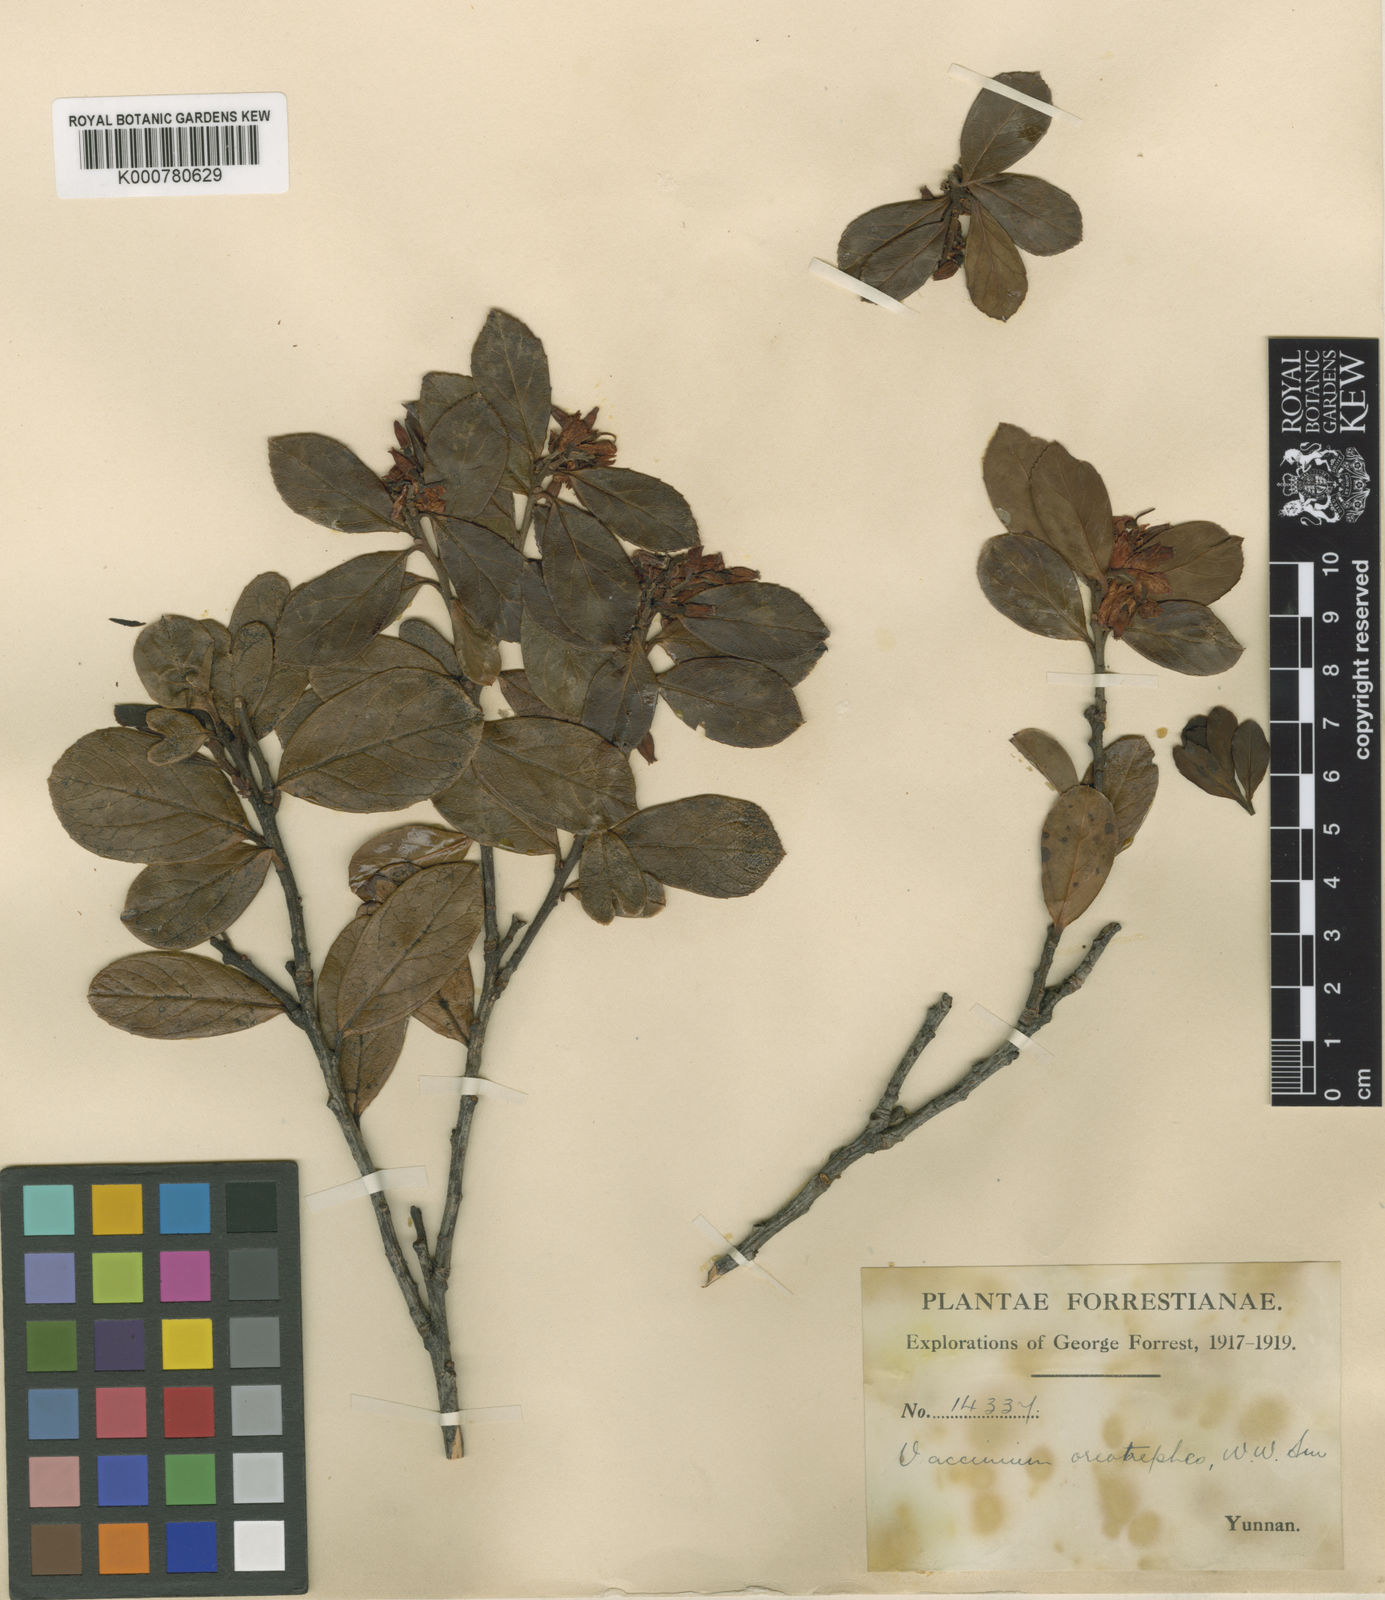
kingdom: Plantae
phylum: Tracheophyta
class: Magnoliopsida
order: Ericales
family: Ericaceae
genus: Vaccinium
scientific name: Vaccinium sikkimense
